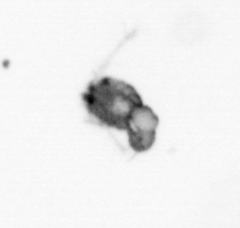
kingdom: Animalia
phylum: Arthropoda
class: Copepoda
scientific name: Copepoda
